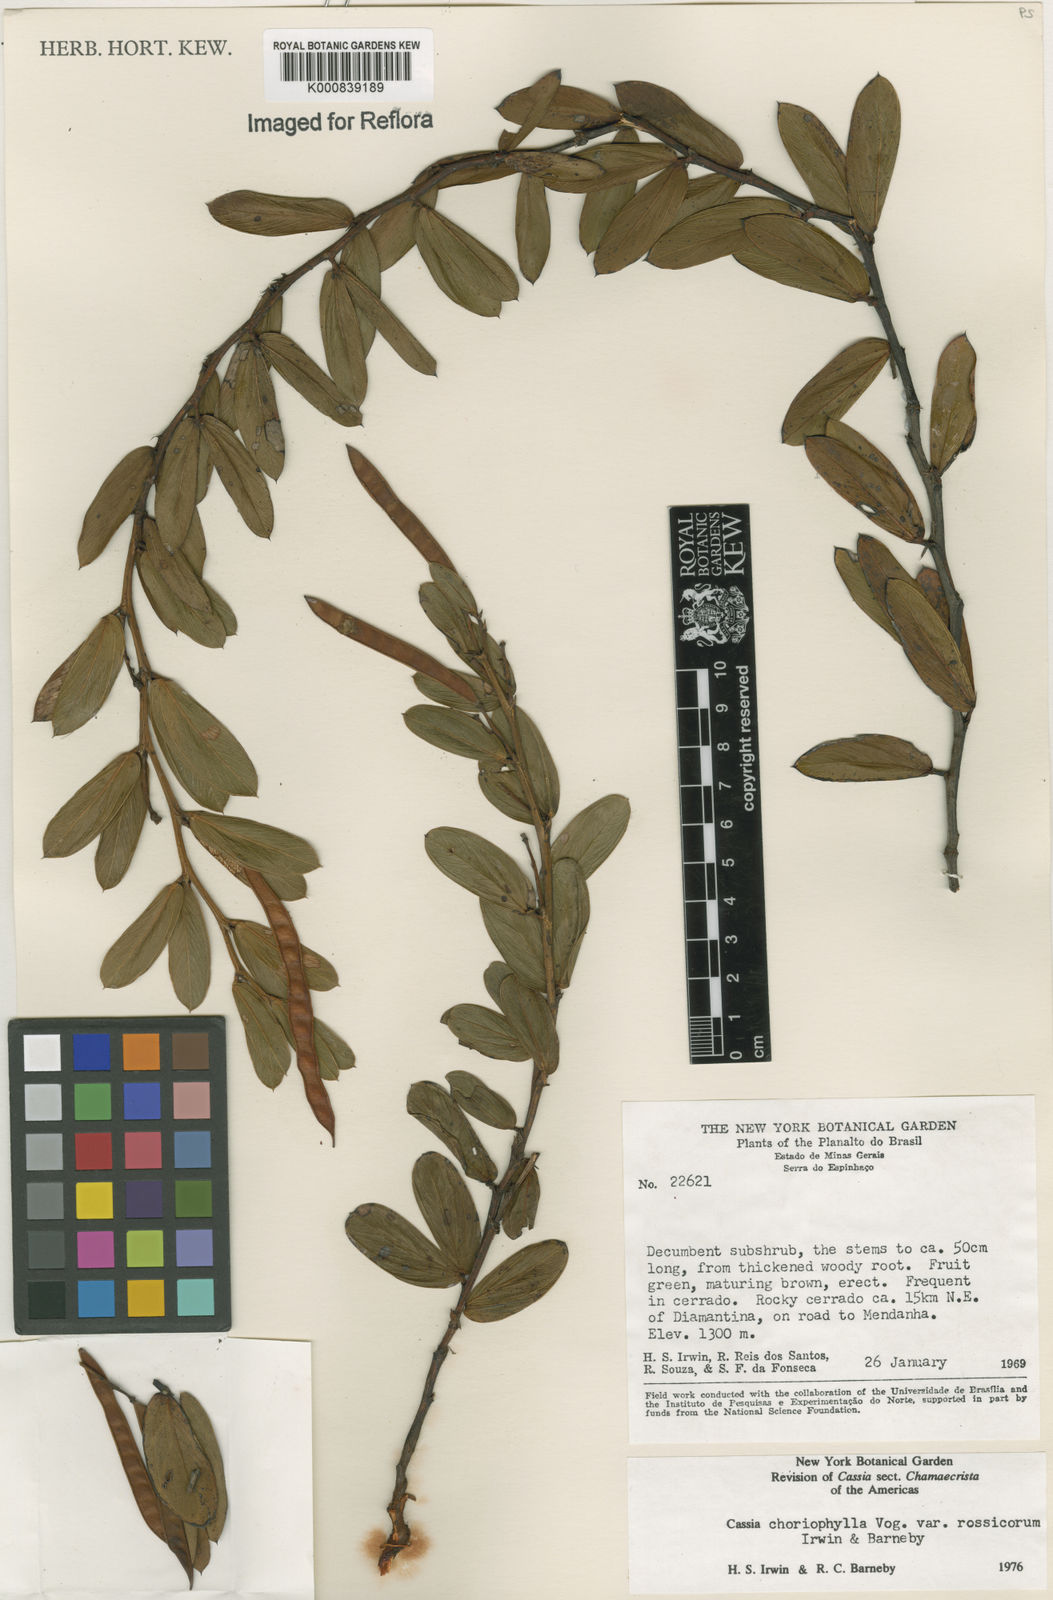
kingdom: Plantae
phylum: Tracheophyta
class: Magnoliopsida
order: Fabales
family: Fabaceae
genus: Chamaecrista
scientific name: Chamaecrista rossicorum
